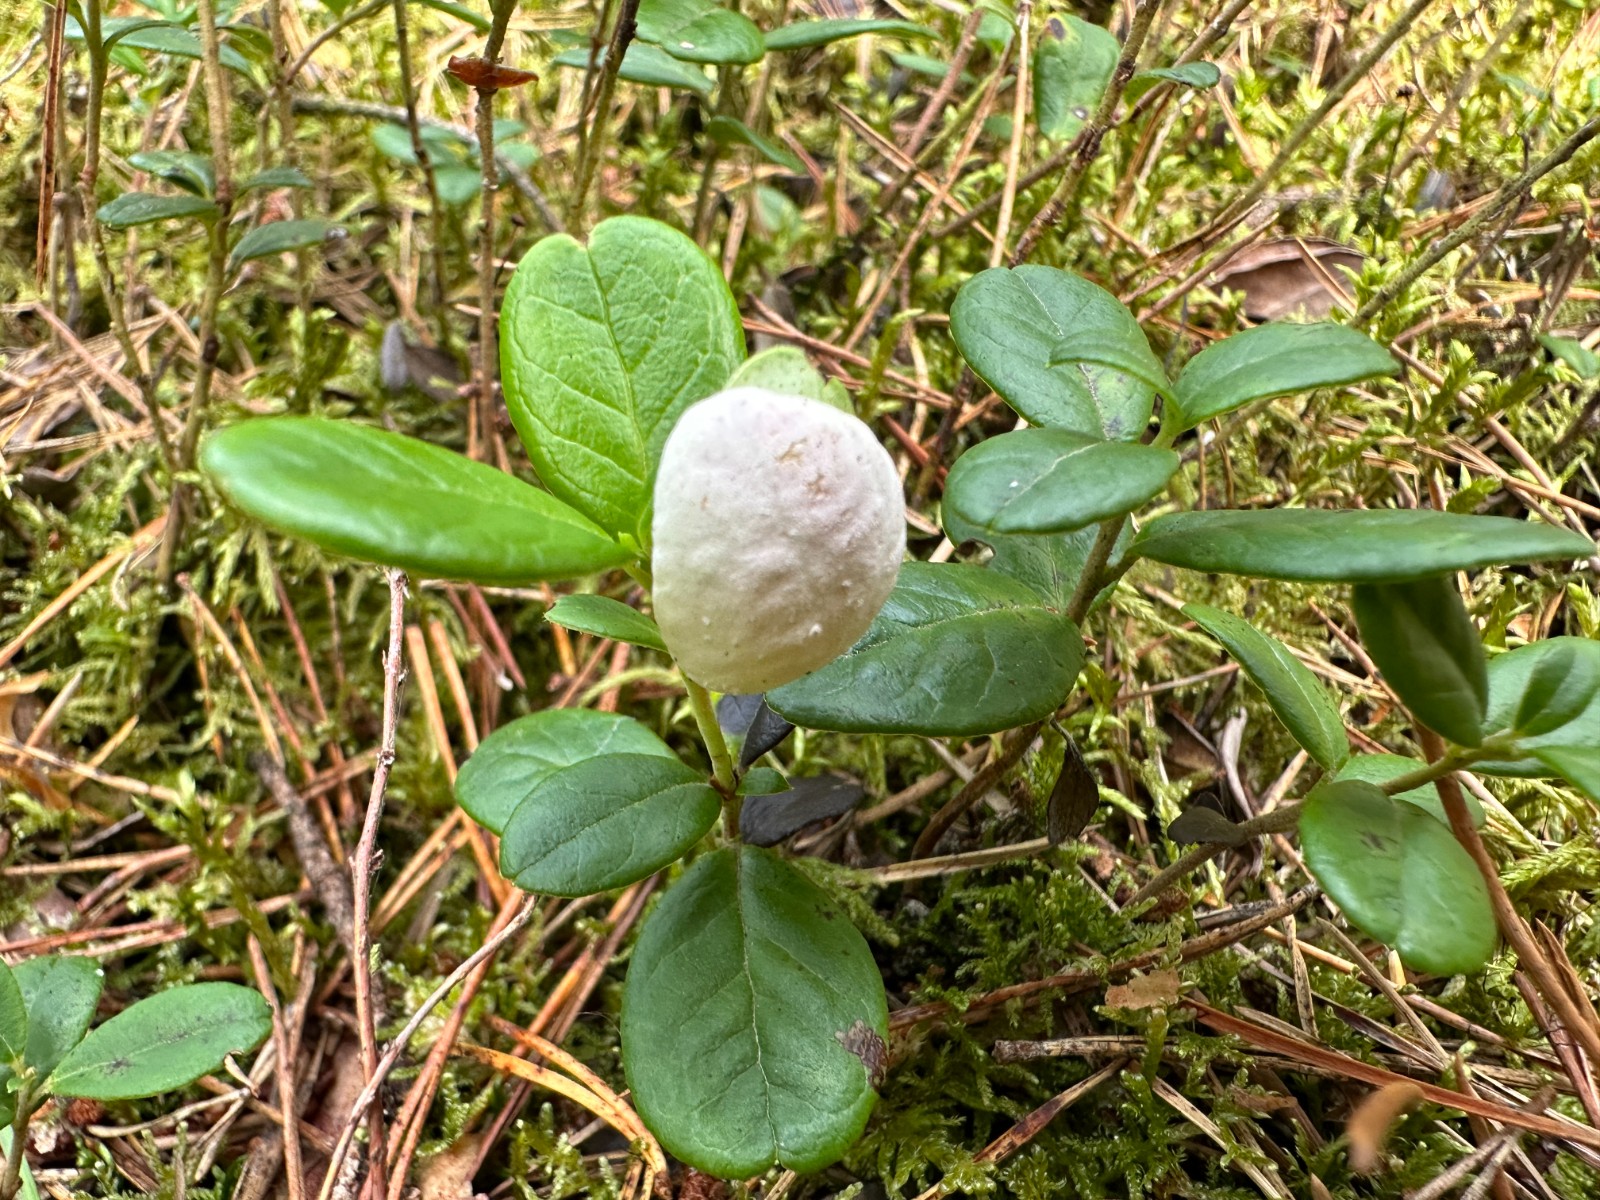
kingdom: Fungi
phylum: Basidiomycota
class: Exobasidiomycetes
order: Exobasidiales
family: Exobasidiaceae
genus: Exobasidium
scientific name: Exobasidium vaccinii
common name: tyttebærblad-bøllesvamp
